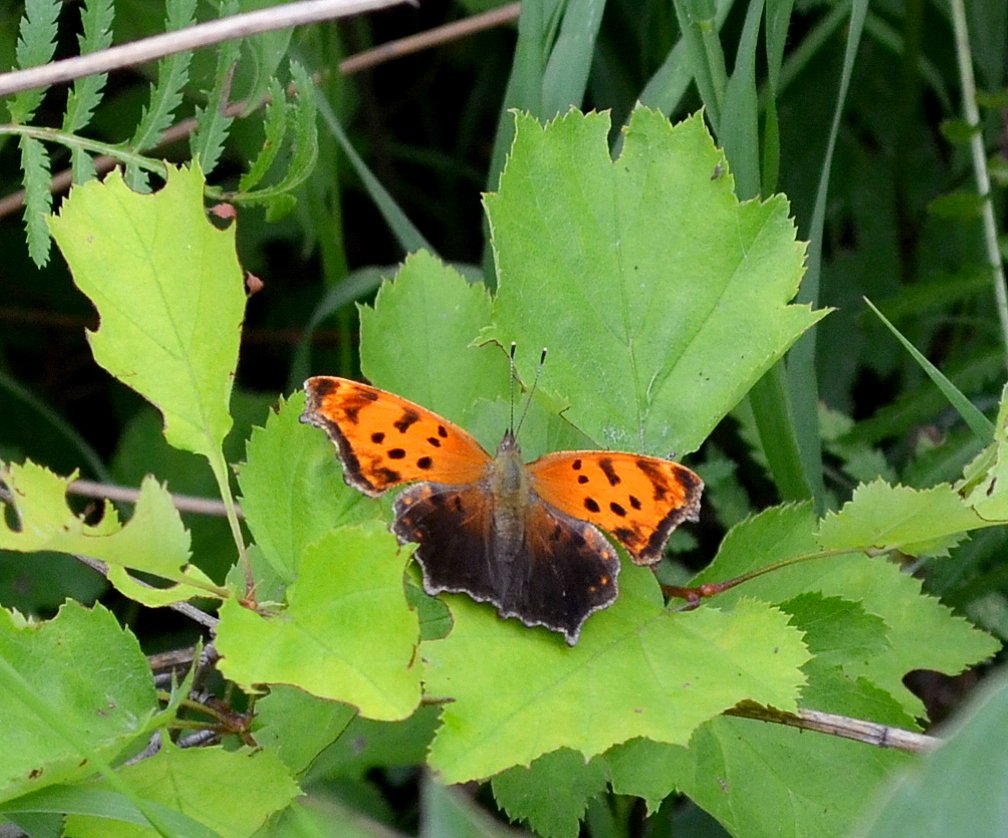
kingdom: Animalia
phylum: Arthropoda
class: Insecta
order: Lepidoptera
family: Nymphalidae
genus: Polygonia
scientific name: Polygonia comma
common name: Eastern Comma
